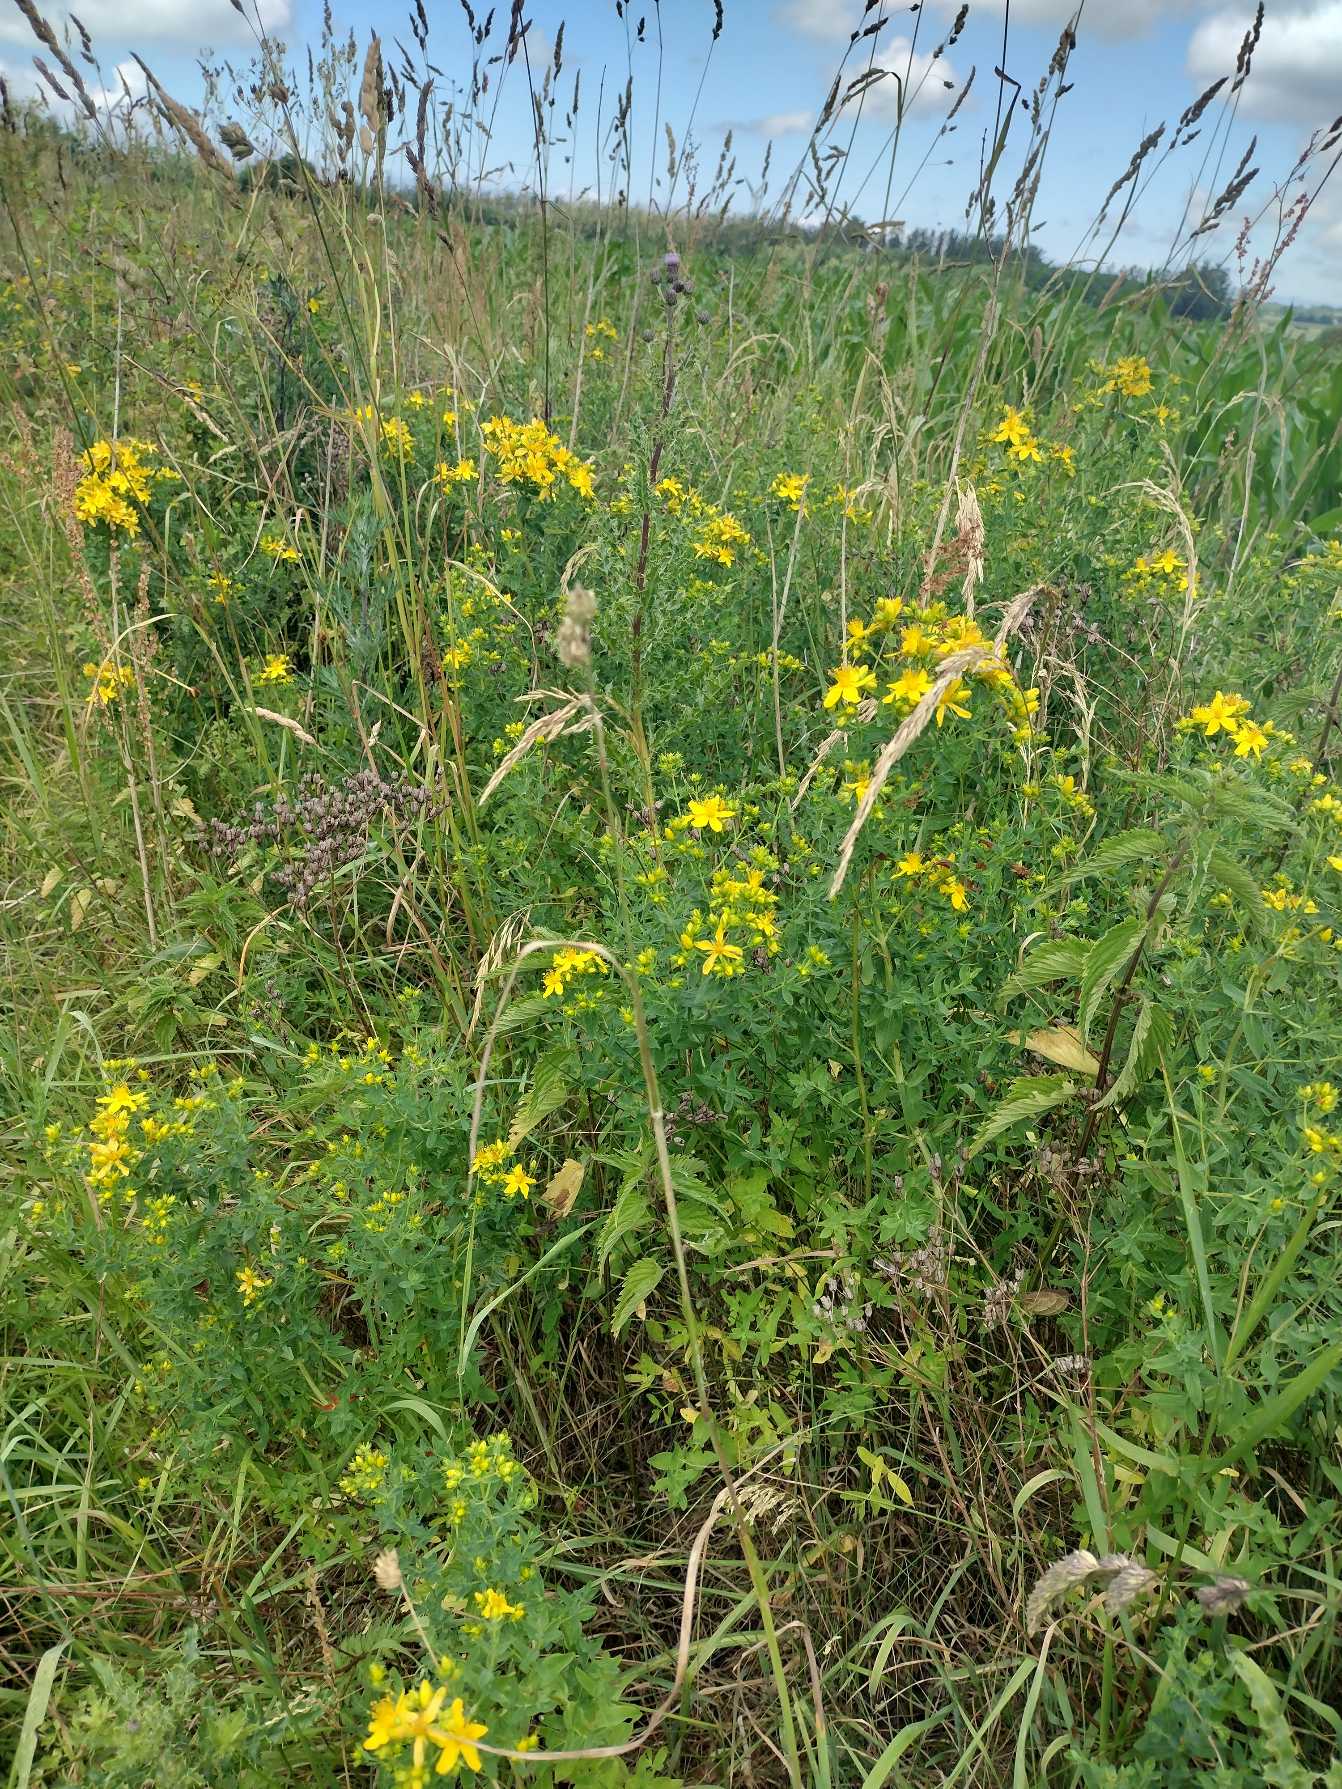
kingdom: Plantae
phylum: Tracheophyta
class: Magnoliopsida
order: Malpighiales
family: Hypericaceae
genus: Hypericum
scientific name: Hypericum perforatum
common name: Prikbladet perikon
